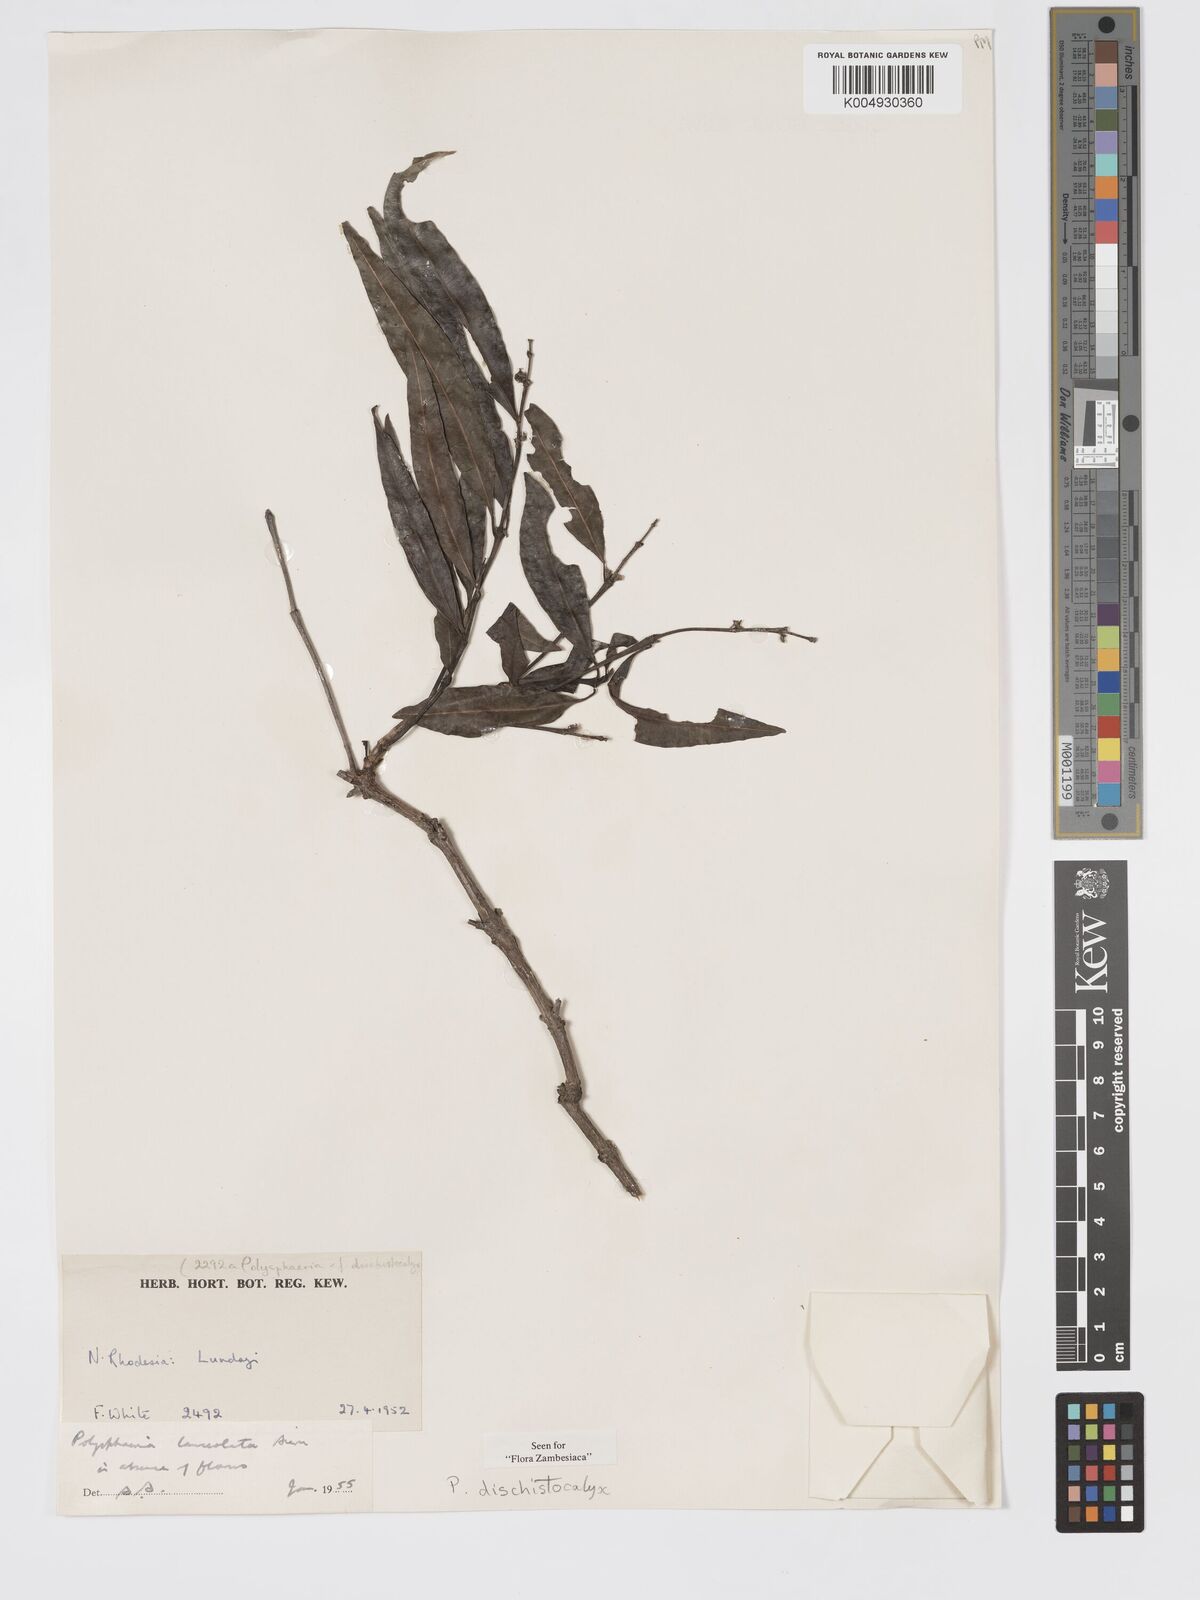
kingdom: Plantae
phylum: Tracheophyta
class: Magnoliopsida
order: Gentianales
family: Rubiaceae
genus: Polysphaeria
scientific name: Polysphaeria dischistocalyx
